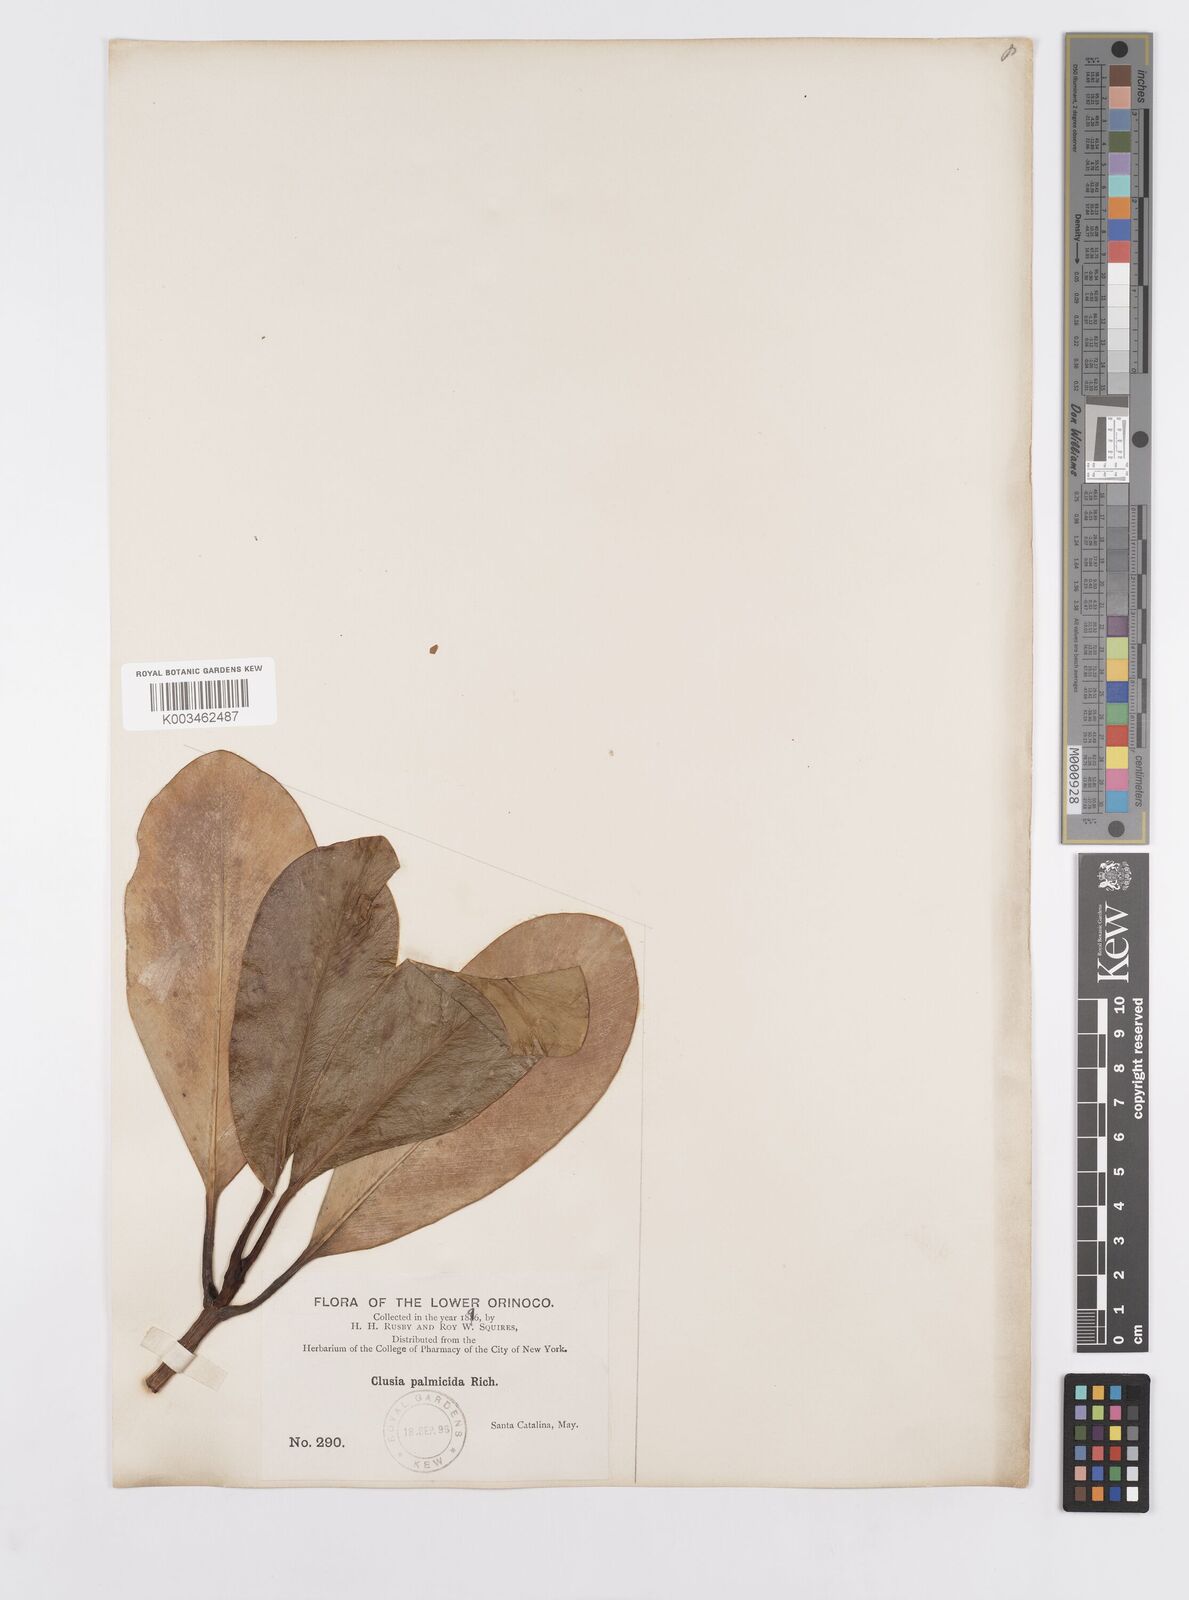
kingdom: Plantae
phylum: Tracheophyta
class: Magnoliopsida
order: Malpighiales
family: Clusiaceae
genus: Clusia
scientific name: Clusia palmicida
